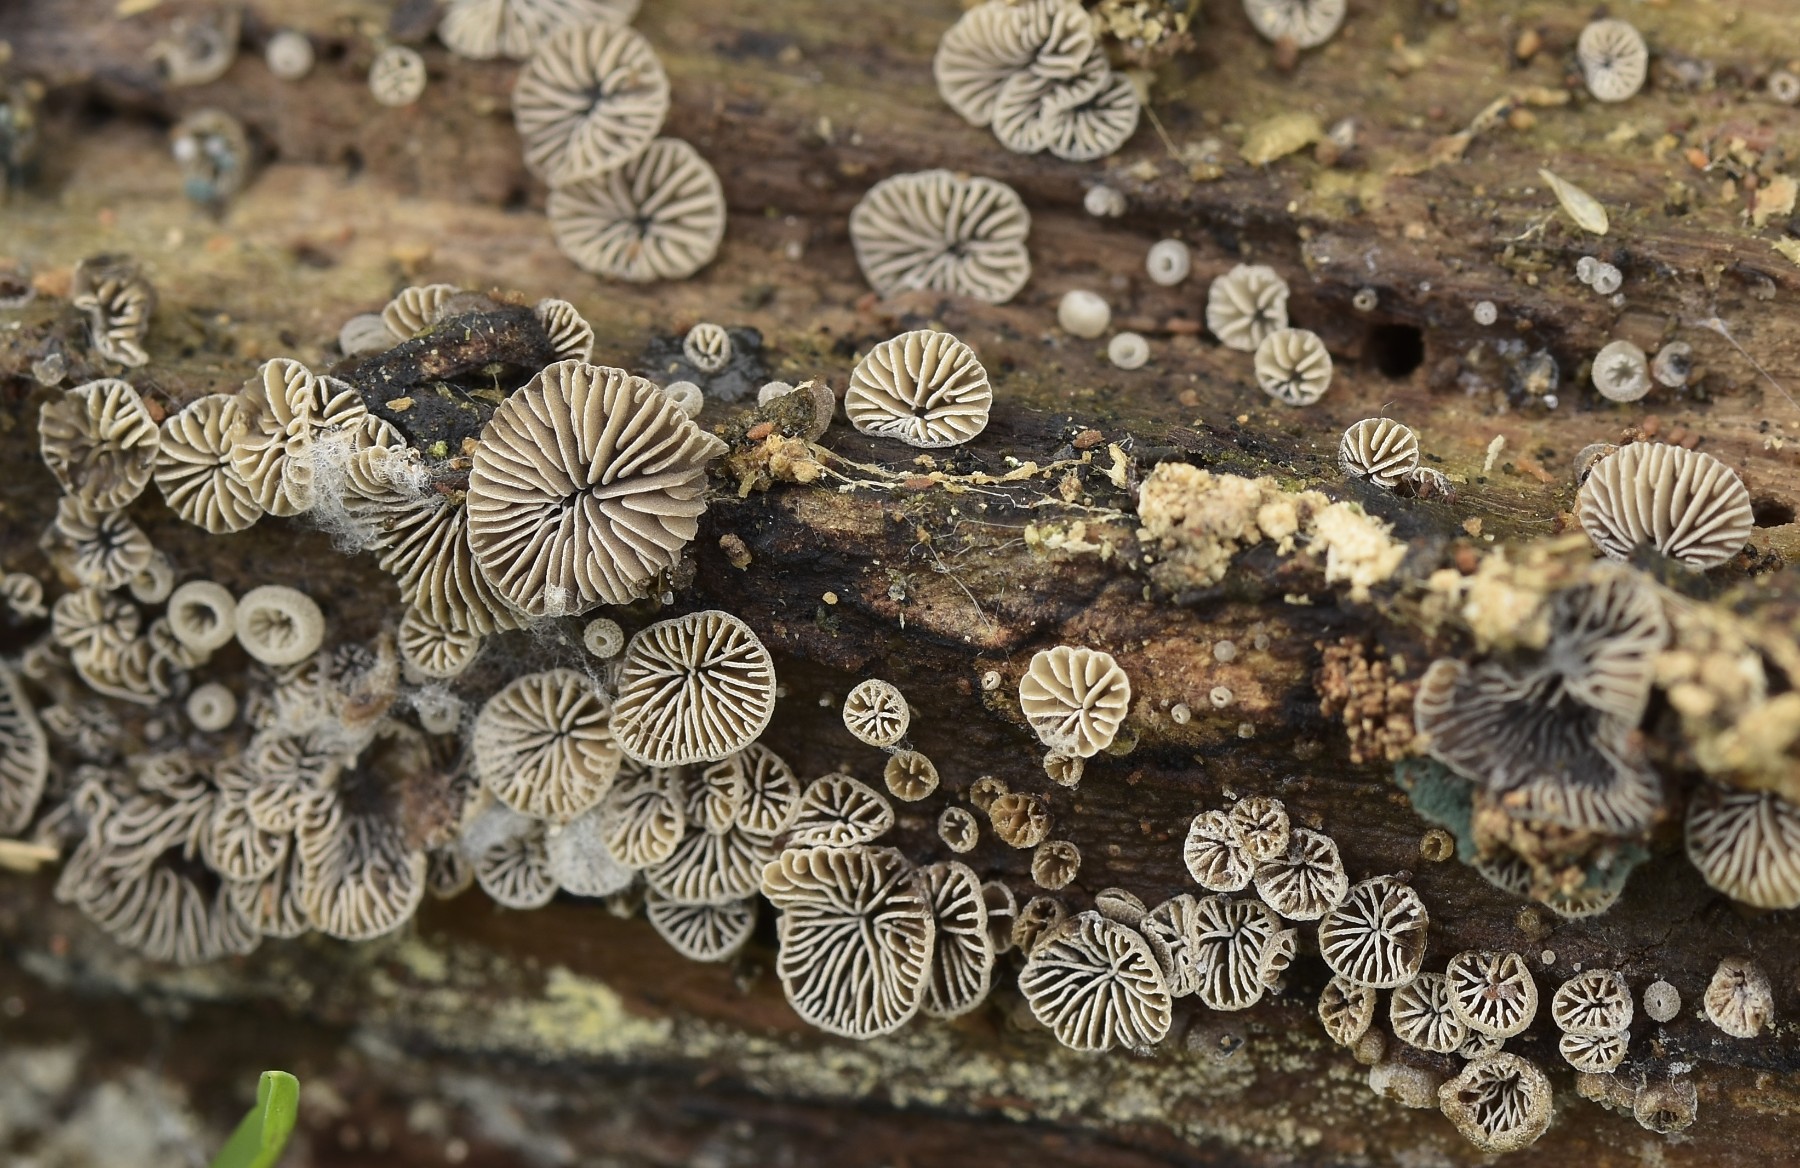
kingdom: Fungi
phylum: Basidiomycota
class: Agaricomycetes
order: Agaricales
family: Pleurotaceae
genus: Resupinatus
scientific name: Resupinatus trichotis
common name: mørkfiltet barkhat
